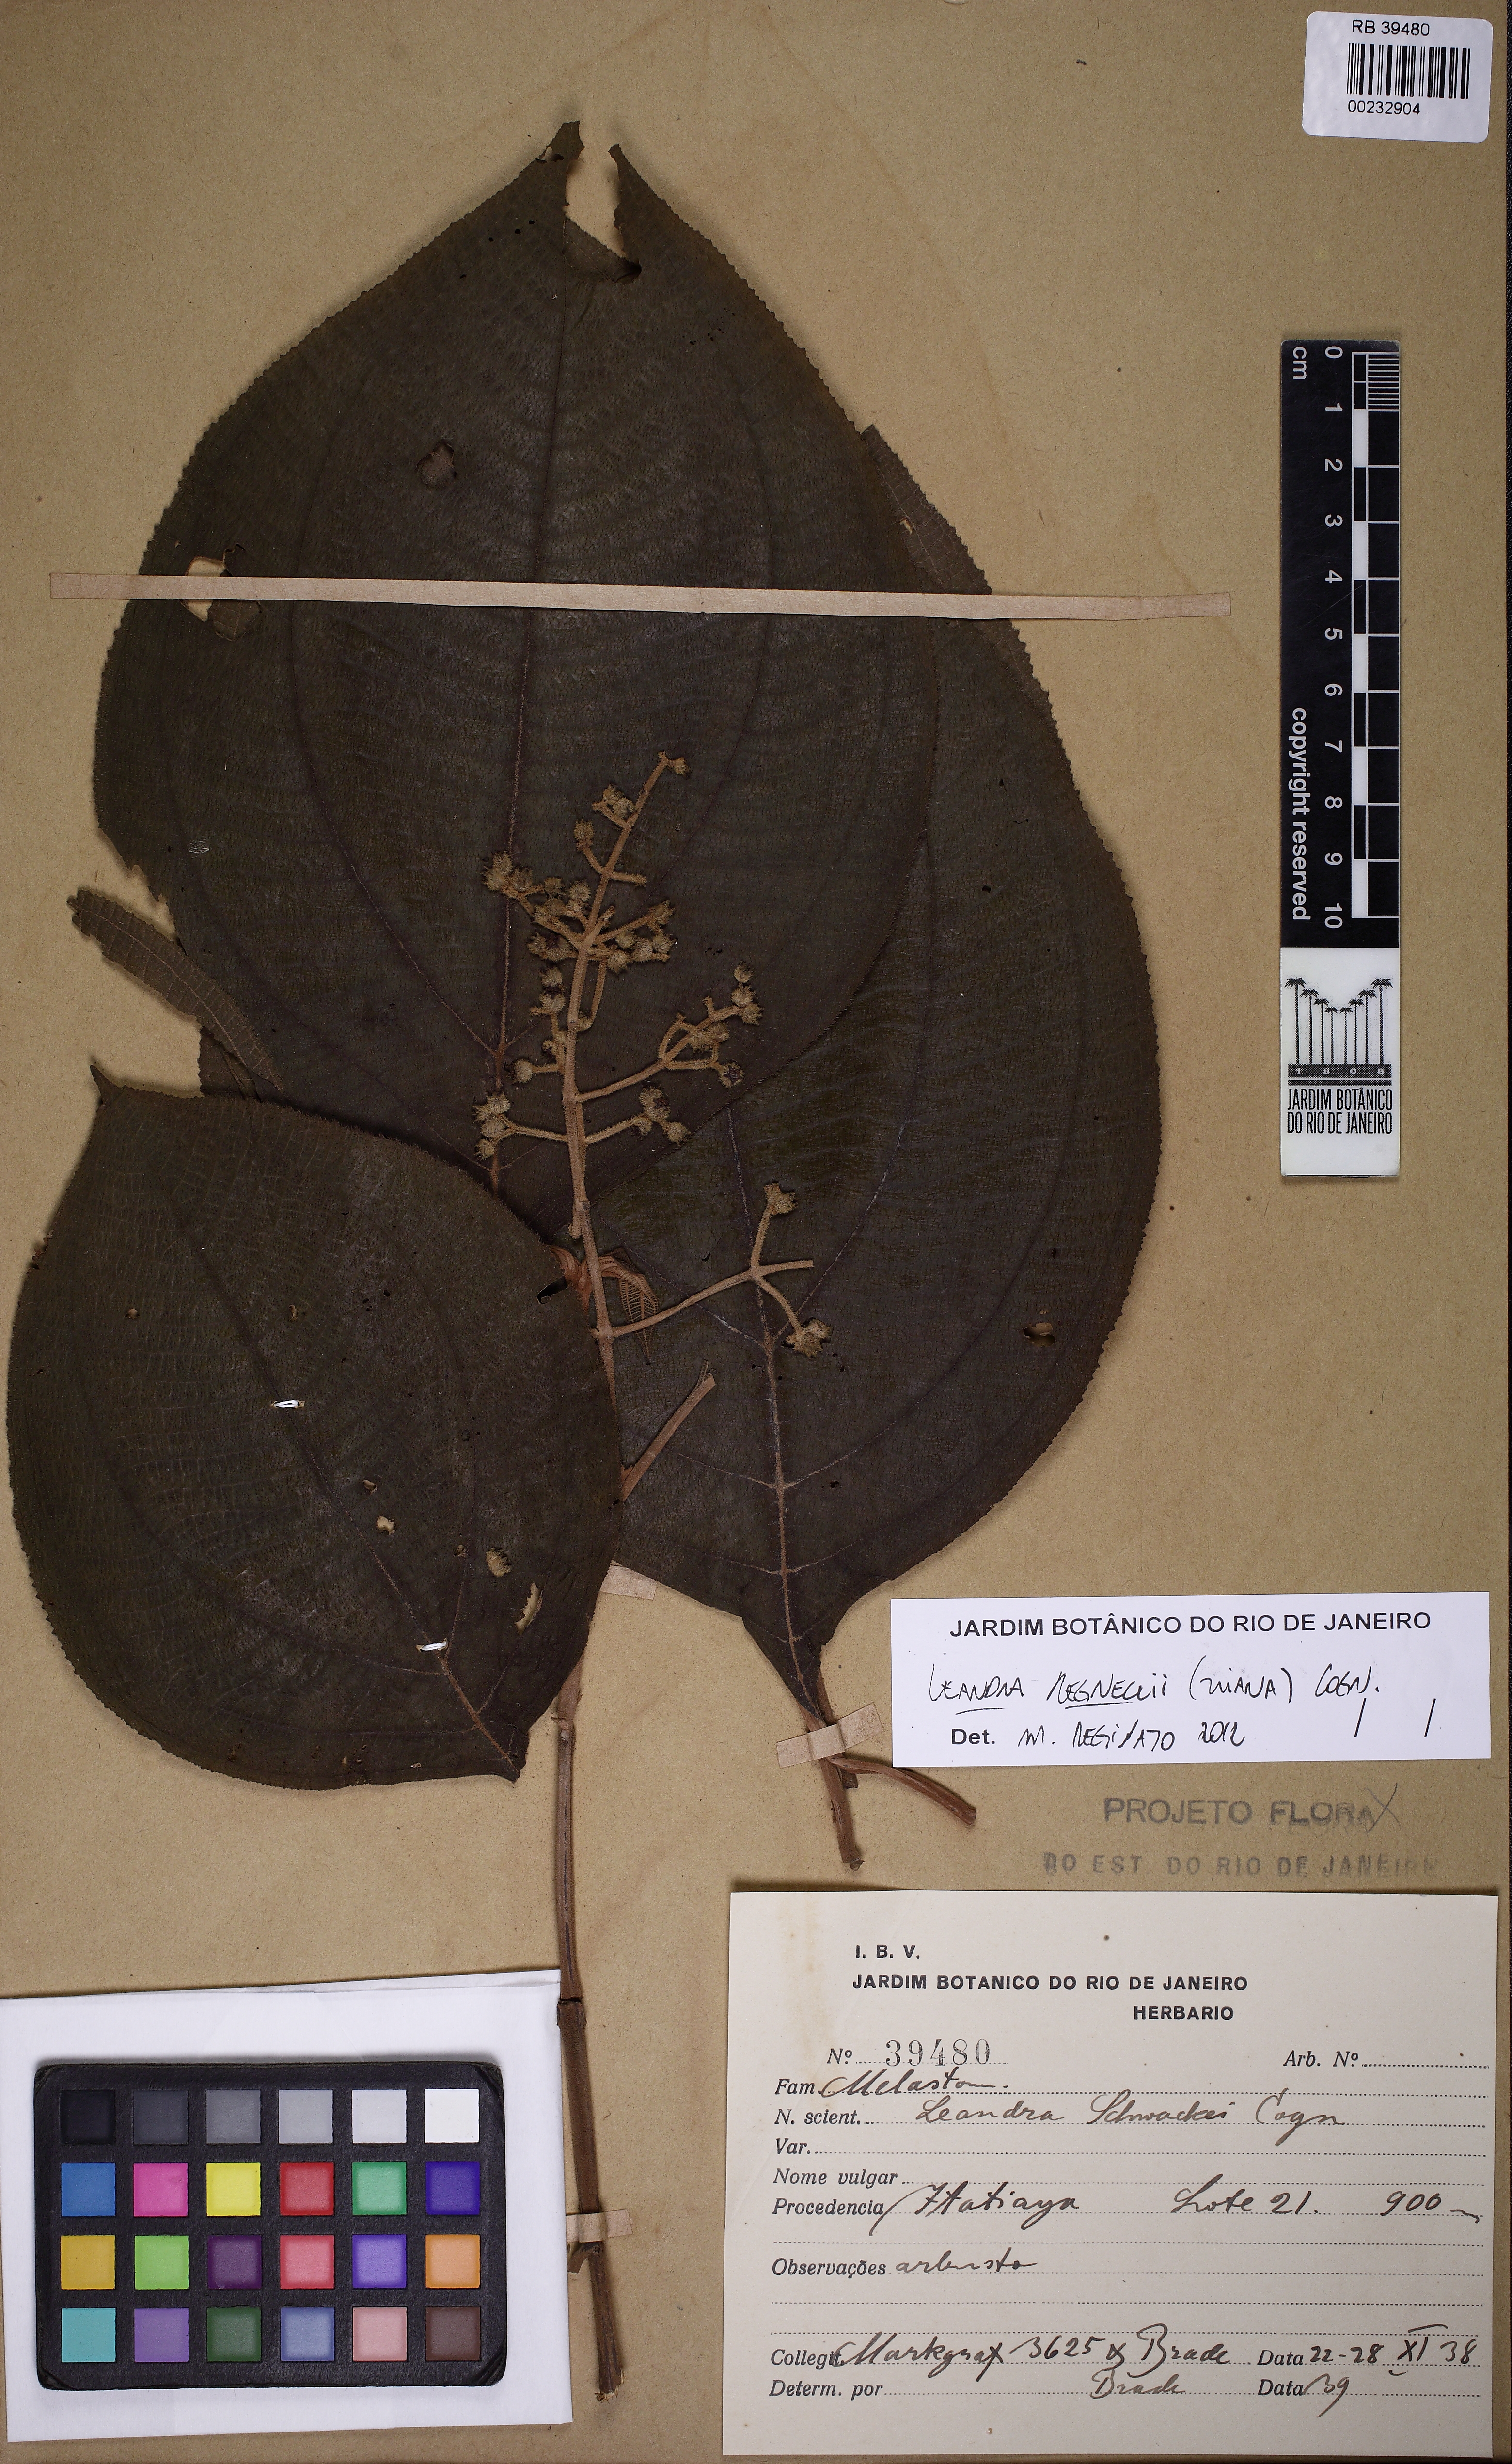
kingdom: Plantae
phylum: Tracheophyta
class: Magnoliopsida
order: Myrtales
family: Melastomataceae
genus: Miconia
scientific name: Miconia alterninervia
